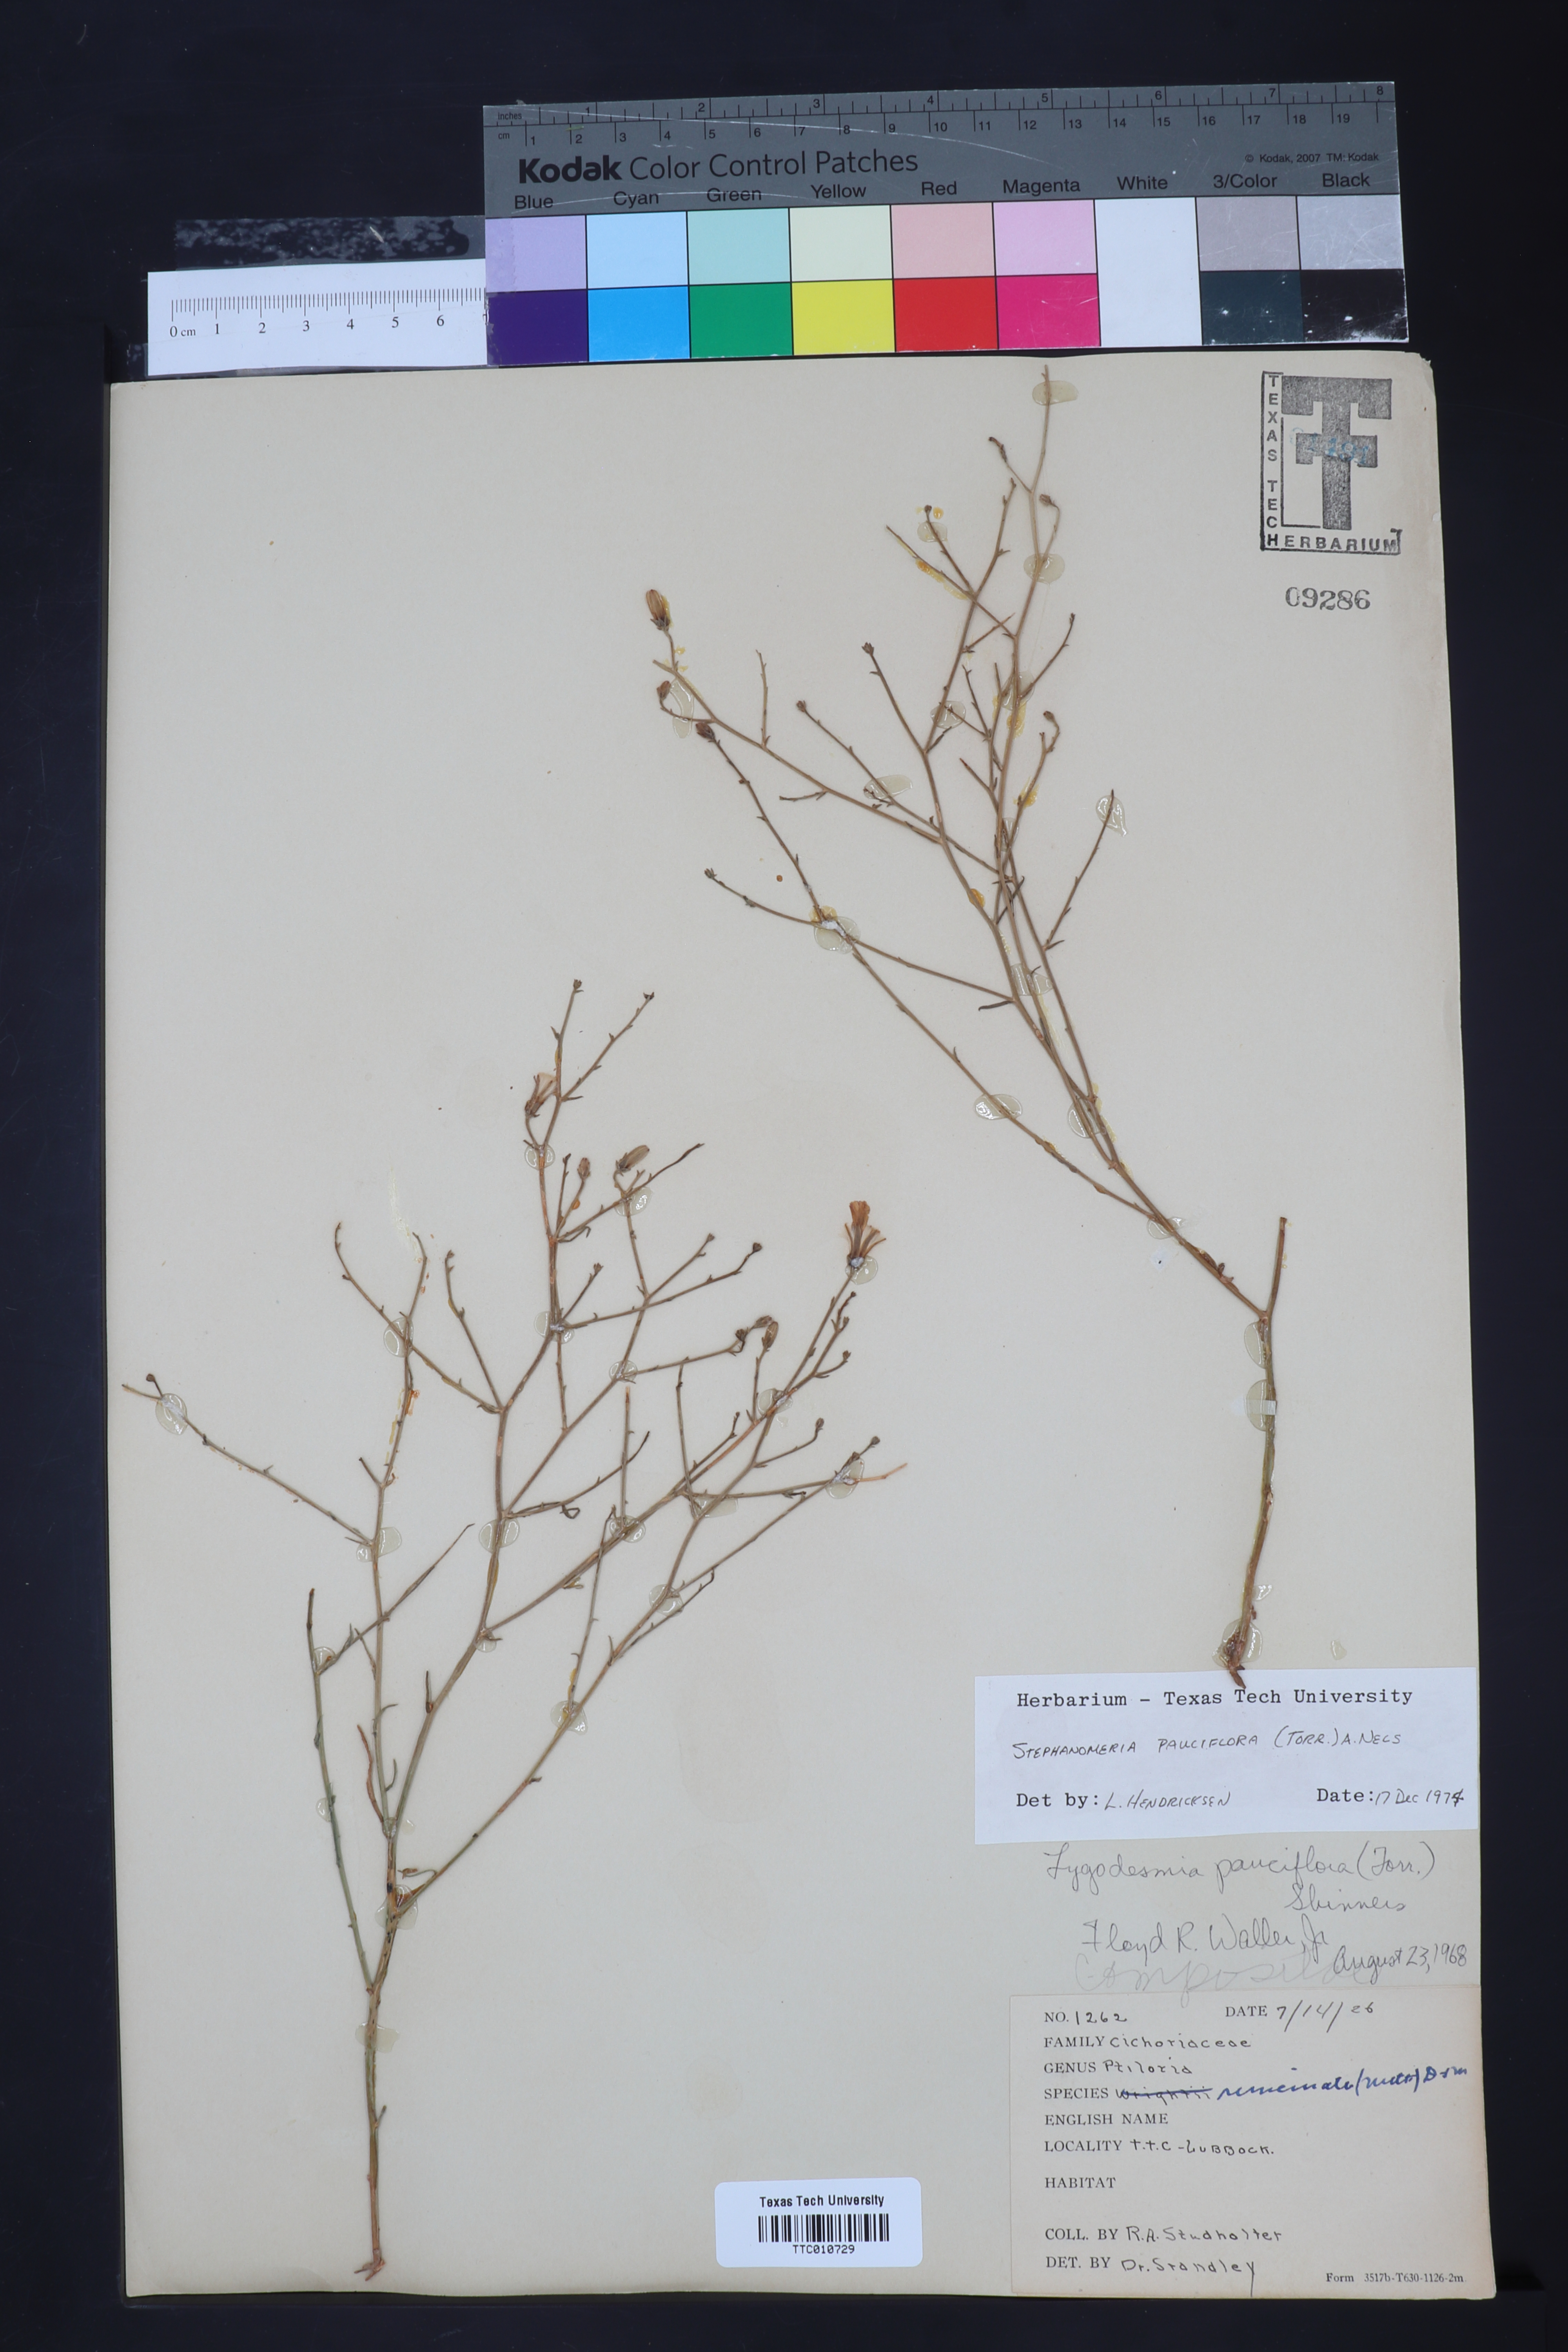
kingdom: Plantae
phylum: Tracheophyta
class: Magnoliopsida
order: Asterales
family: Asteraceae
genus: Stephanomeria
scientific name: Stephanomeria pauciflora
